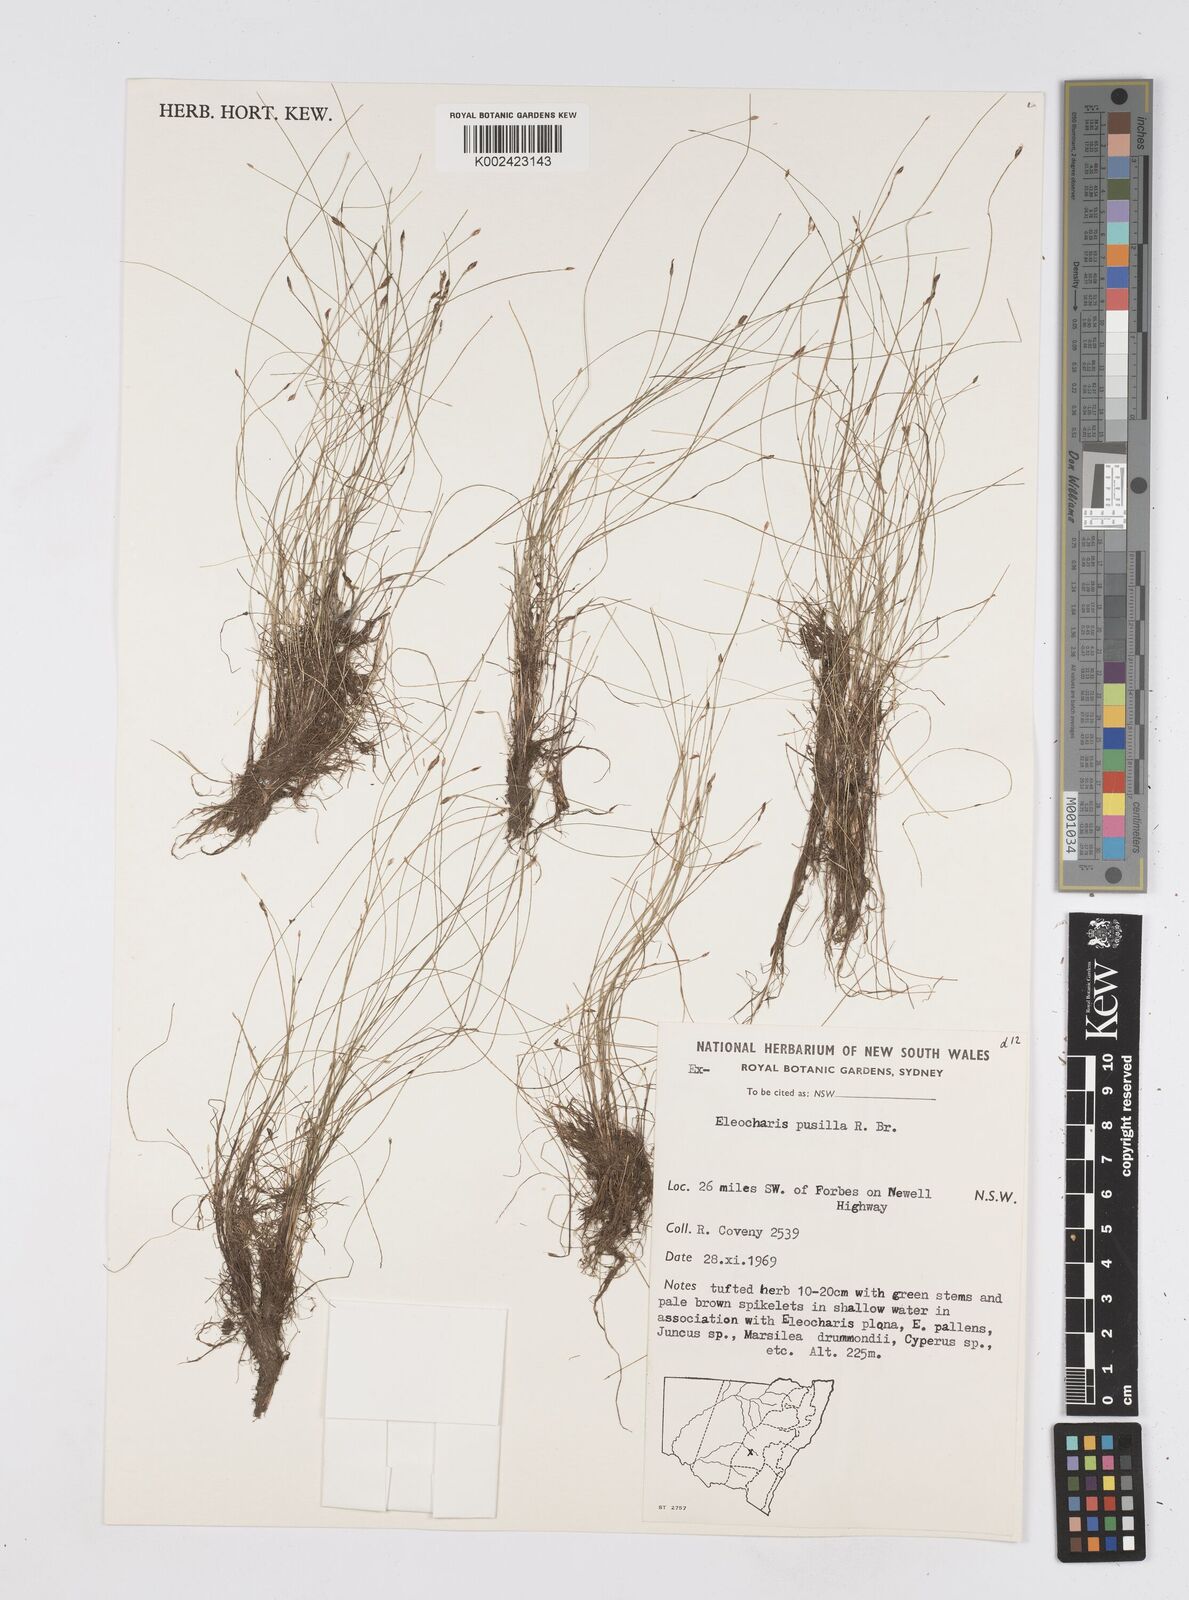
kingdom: Plantae
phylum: Tracheophyta
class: Liliopsida
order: Poales
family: Cyperaceae
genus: Eleocharis
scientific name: Eleocharis pusilla
